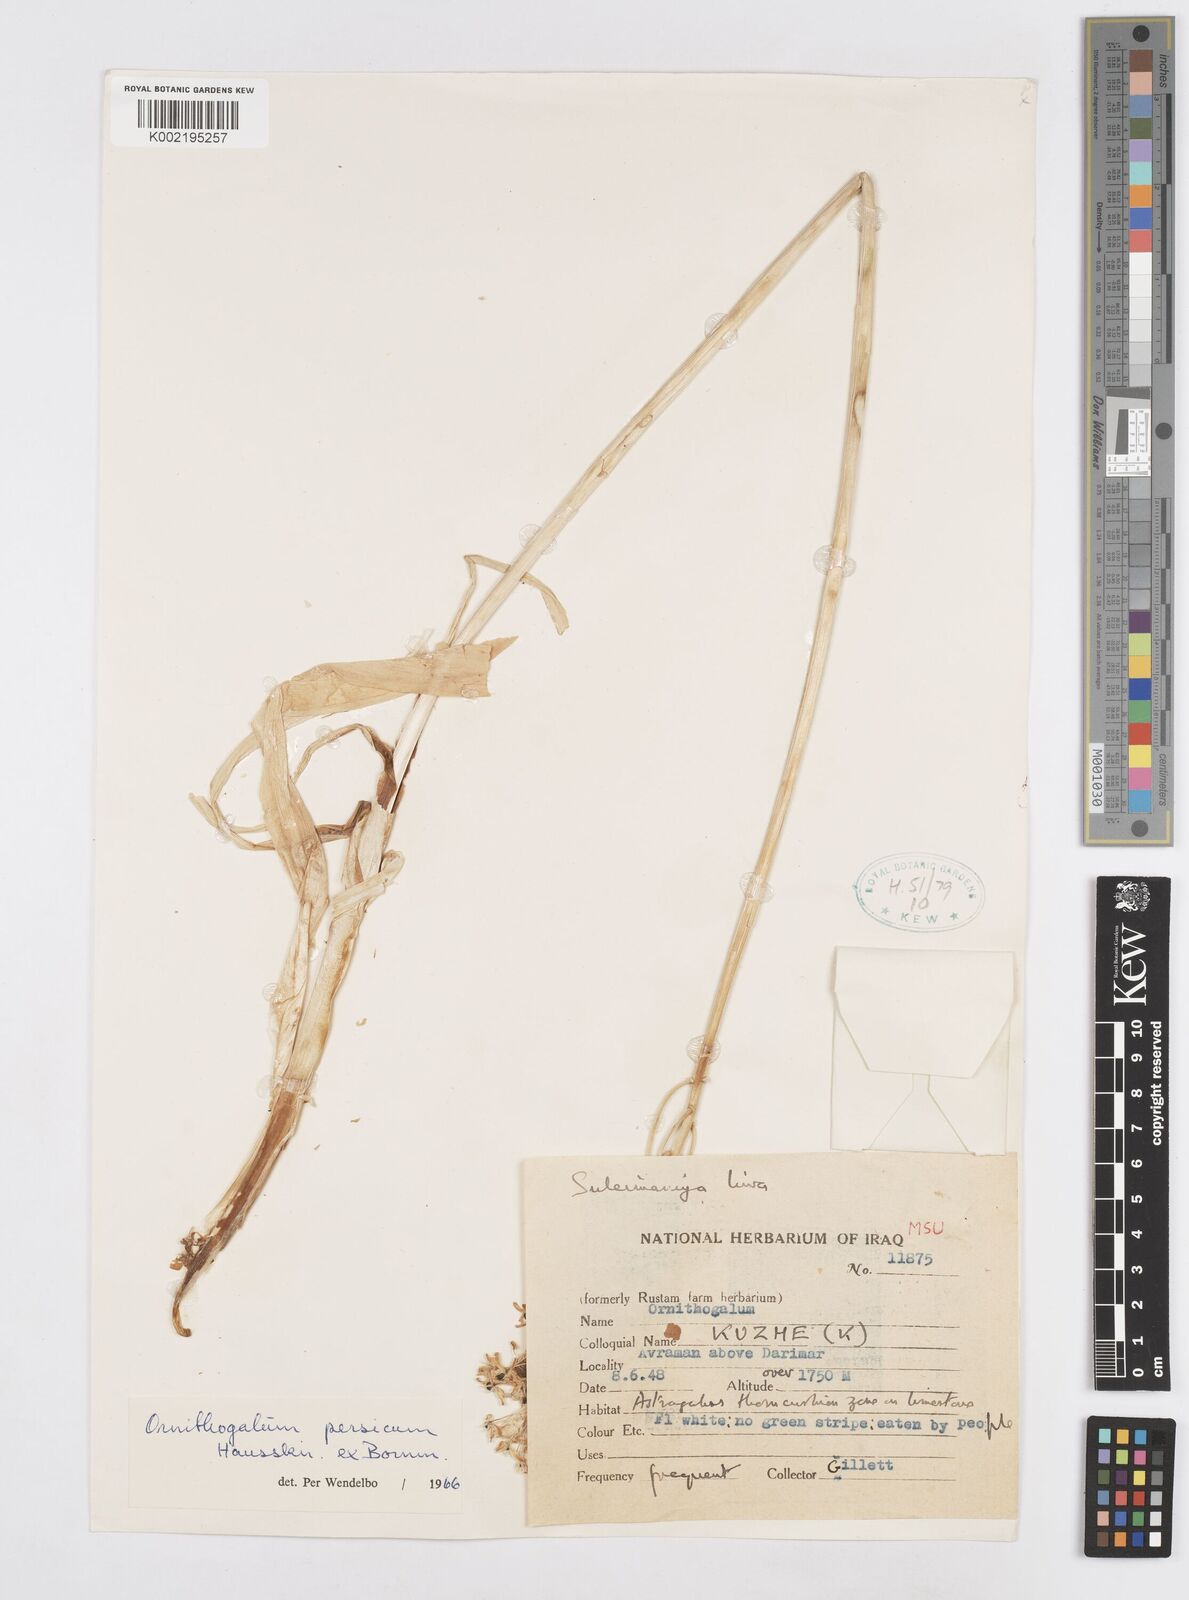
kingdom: Plantae
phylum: Tracheophyta
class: Liliopsida
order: Asparagales
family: Asparagaceae
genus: Ornithogalum
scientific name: Ornithogalum persicum
